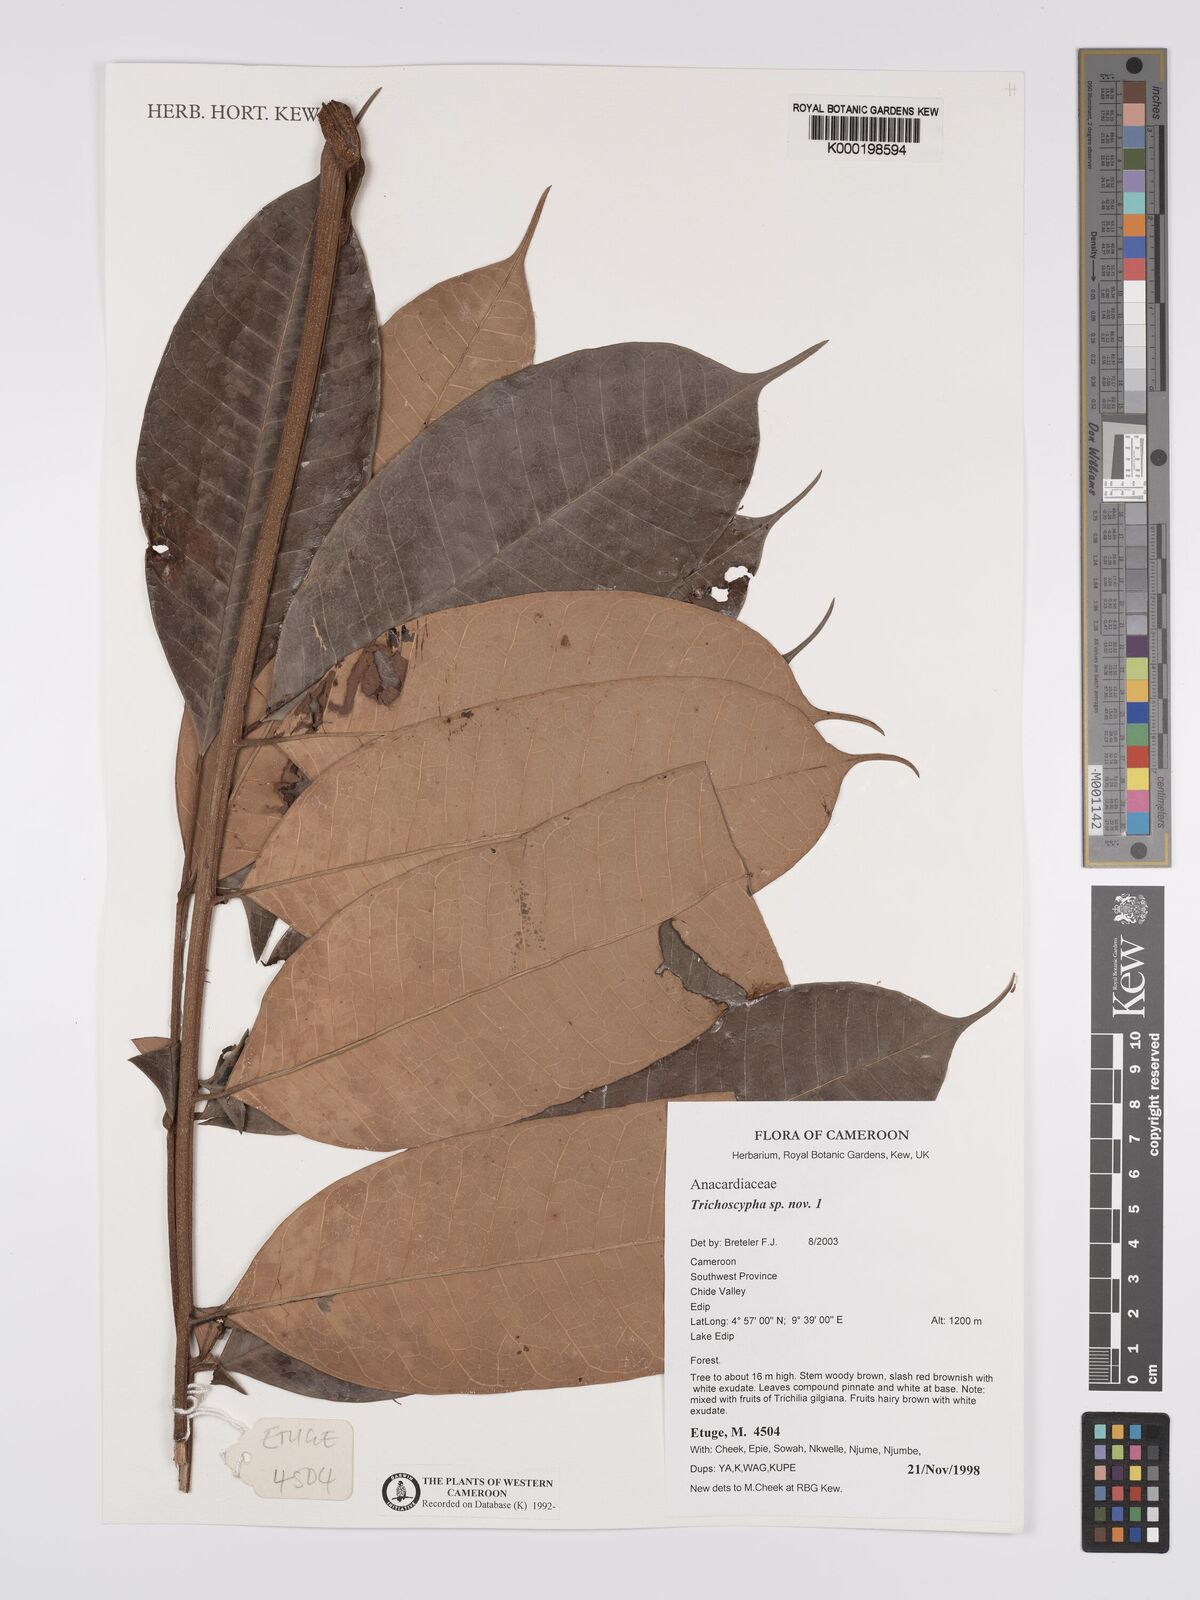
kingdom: Plantae
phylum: Tracheophyta
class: Magnoliopsida
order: Sapindales
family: Anacardiaceae
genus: Trichoscypha
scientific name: Trichoscypha
